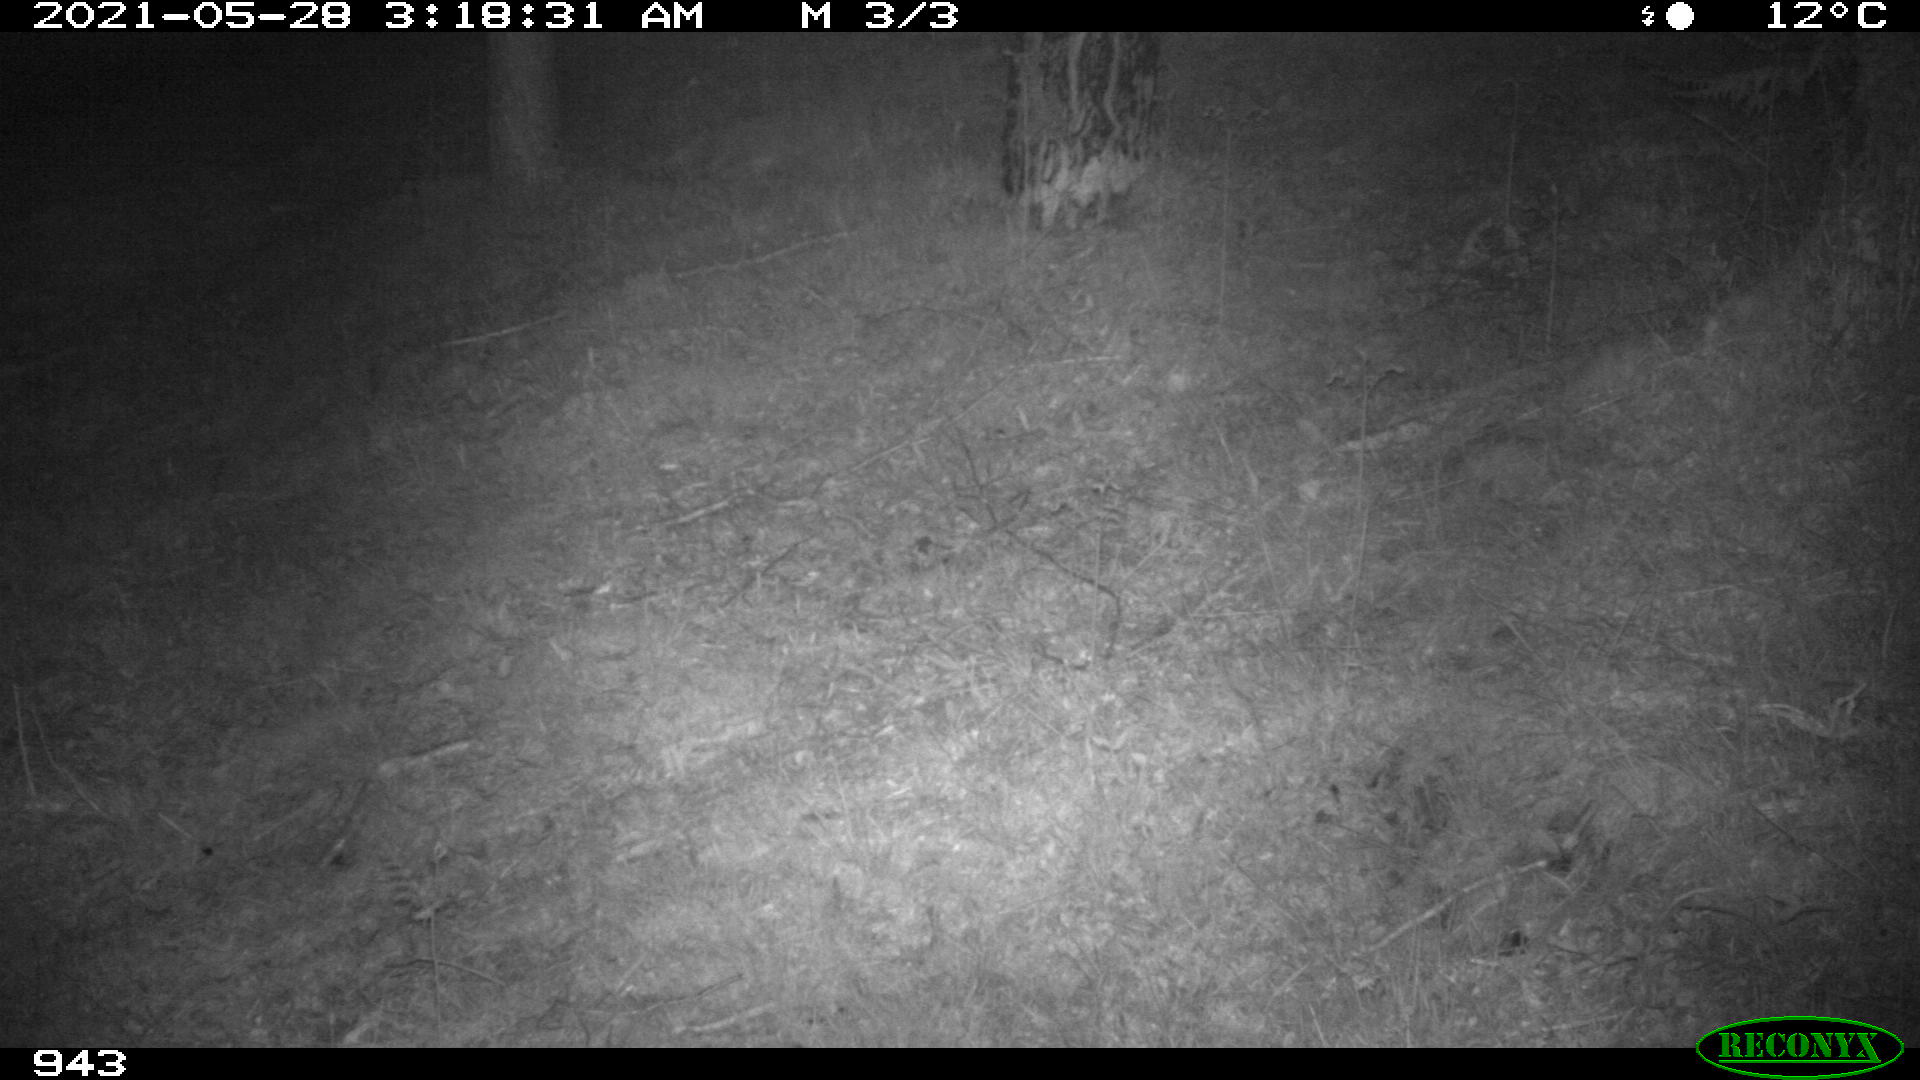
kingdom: Animalia
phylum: Chordata
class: Mammalia
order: Perissodactyla
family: Equidae
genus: Equus
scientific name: Equus caballus
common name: Horse
